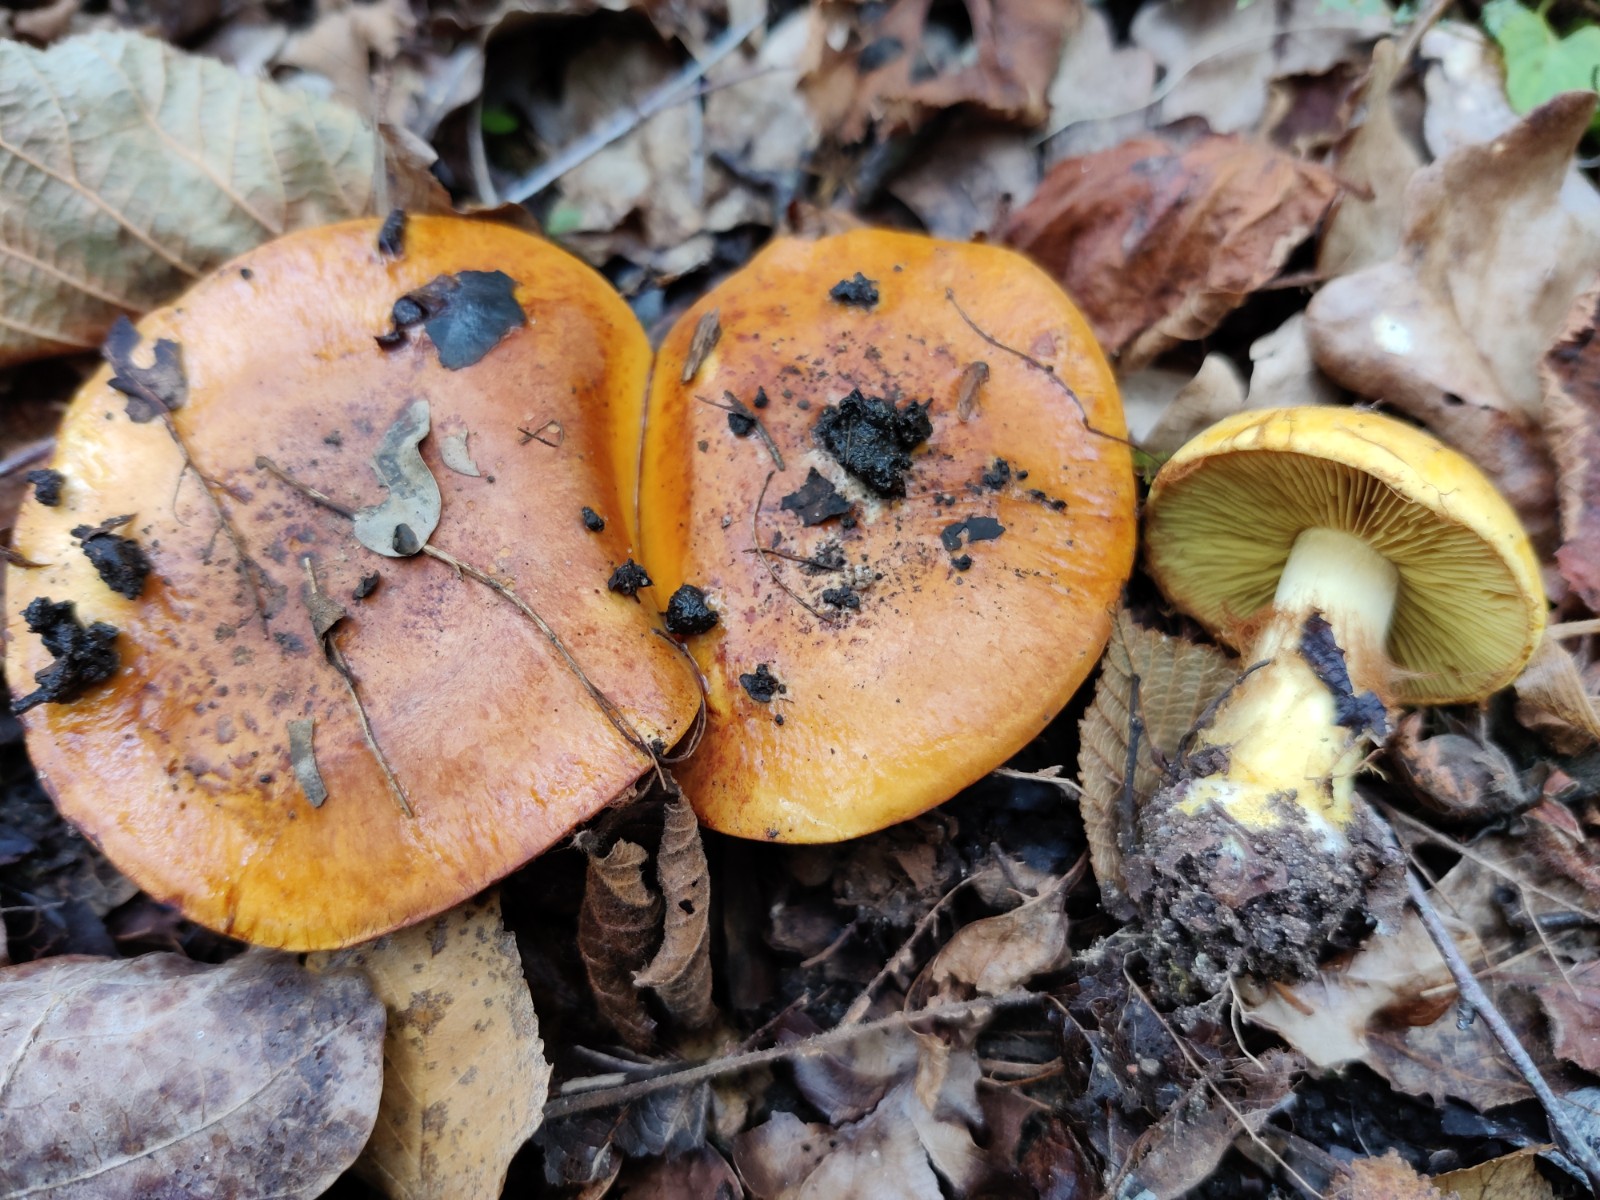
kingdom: Fungi
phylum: Basidiomycota
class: Agaricomycetes
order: Agaricales
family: Cortinariaceae
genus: Calonarius
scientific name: Calonarius olearioides
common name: safran-slørhat
